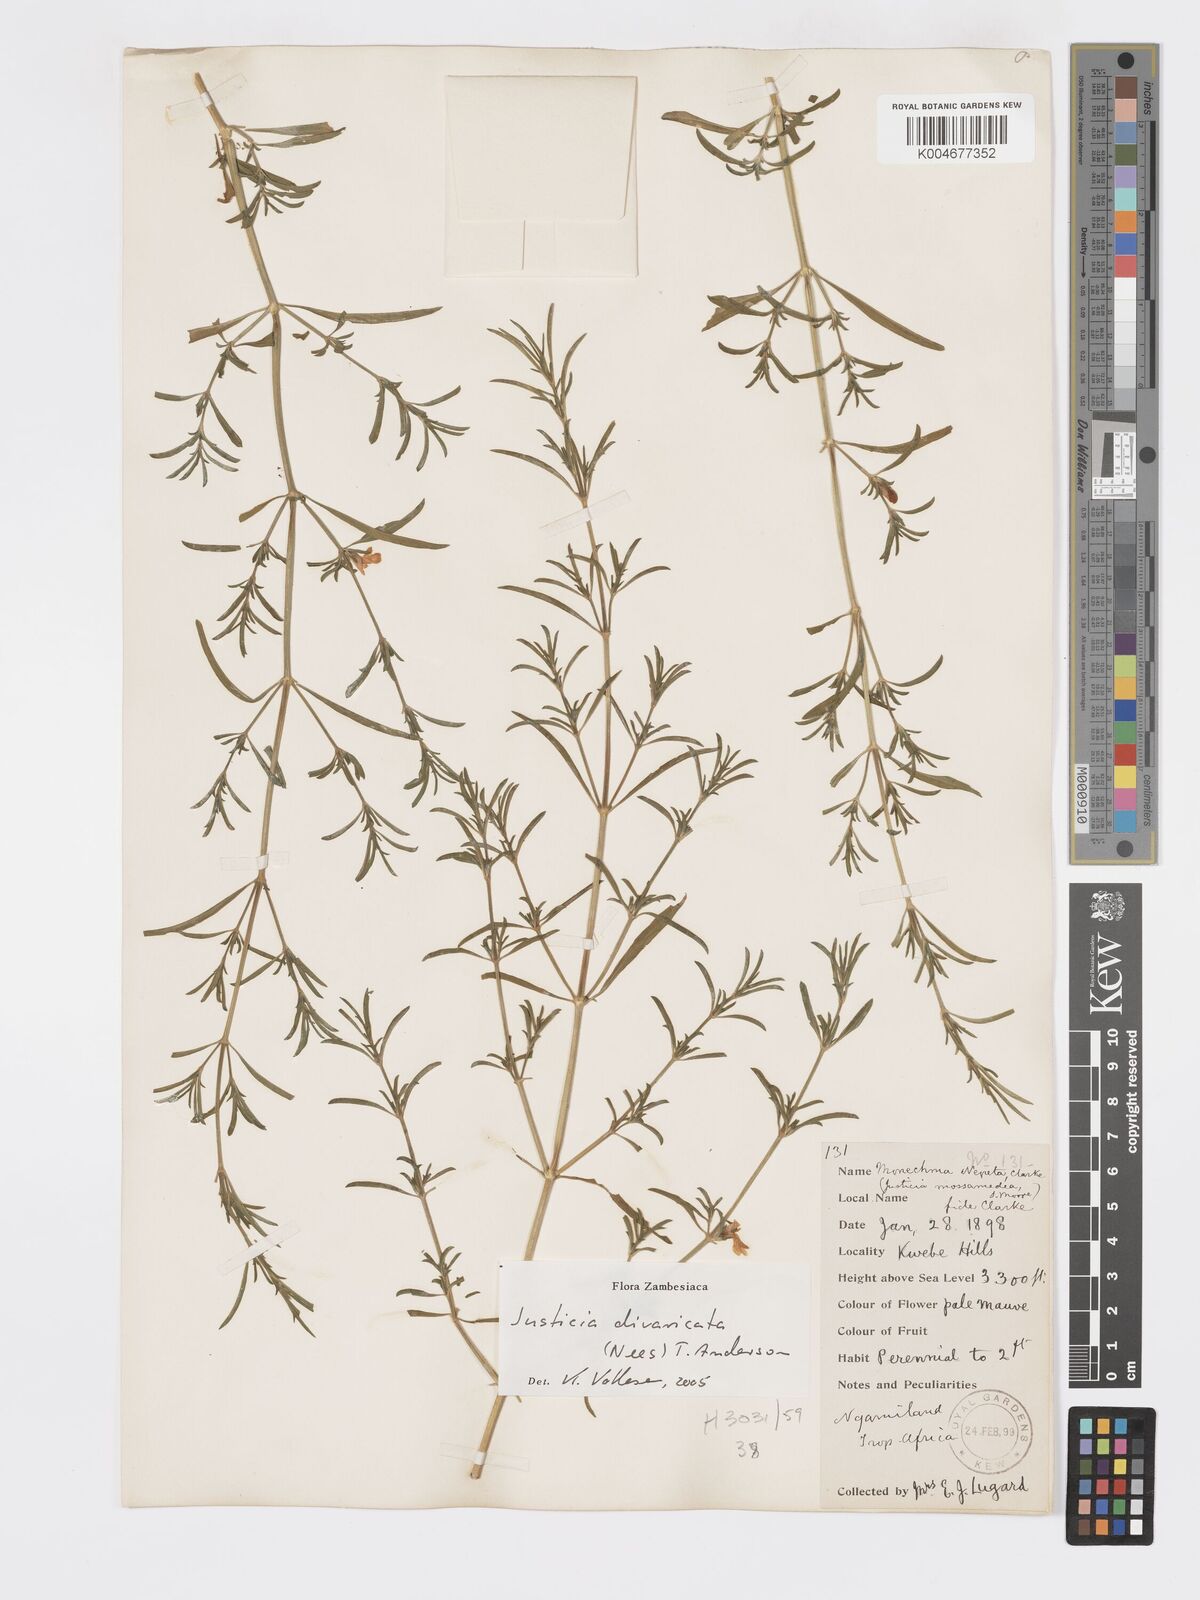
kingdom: Plantae
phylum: Tracheophyta
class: Magnoliopsida
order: Lamiales
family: Acanthaceae
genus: Pogonospermum
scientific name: Pogonospermum
